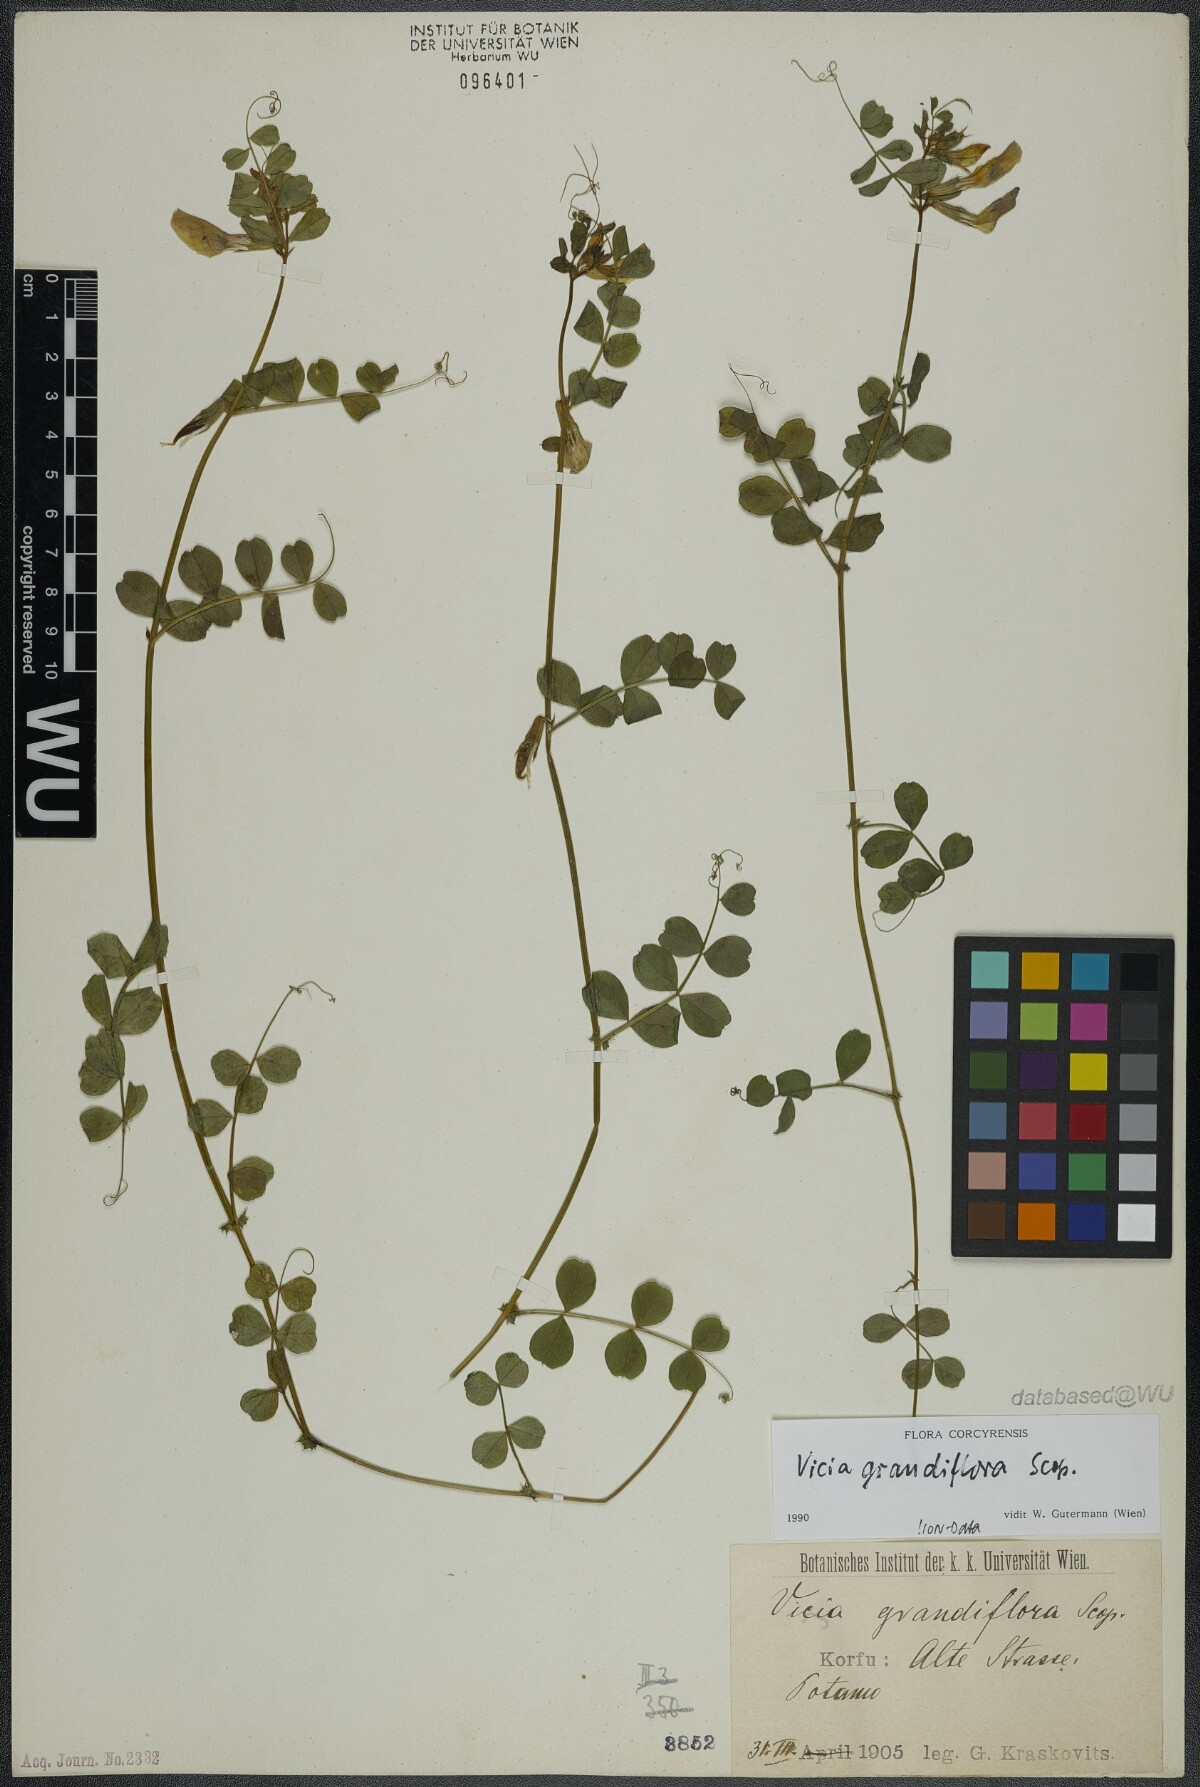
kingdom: Plantae
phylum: Tracheophyta
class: Magnoliopsida
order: Fabales
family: Fabaceae
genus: Vicia
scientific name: Vicia grandiflora
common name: Large yellow vetch
